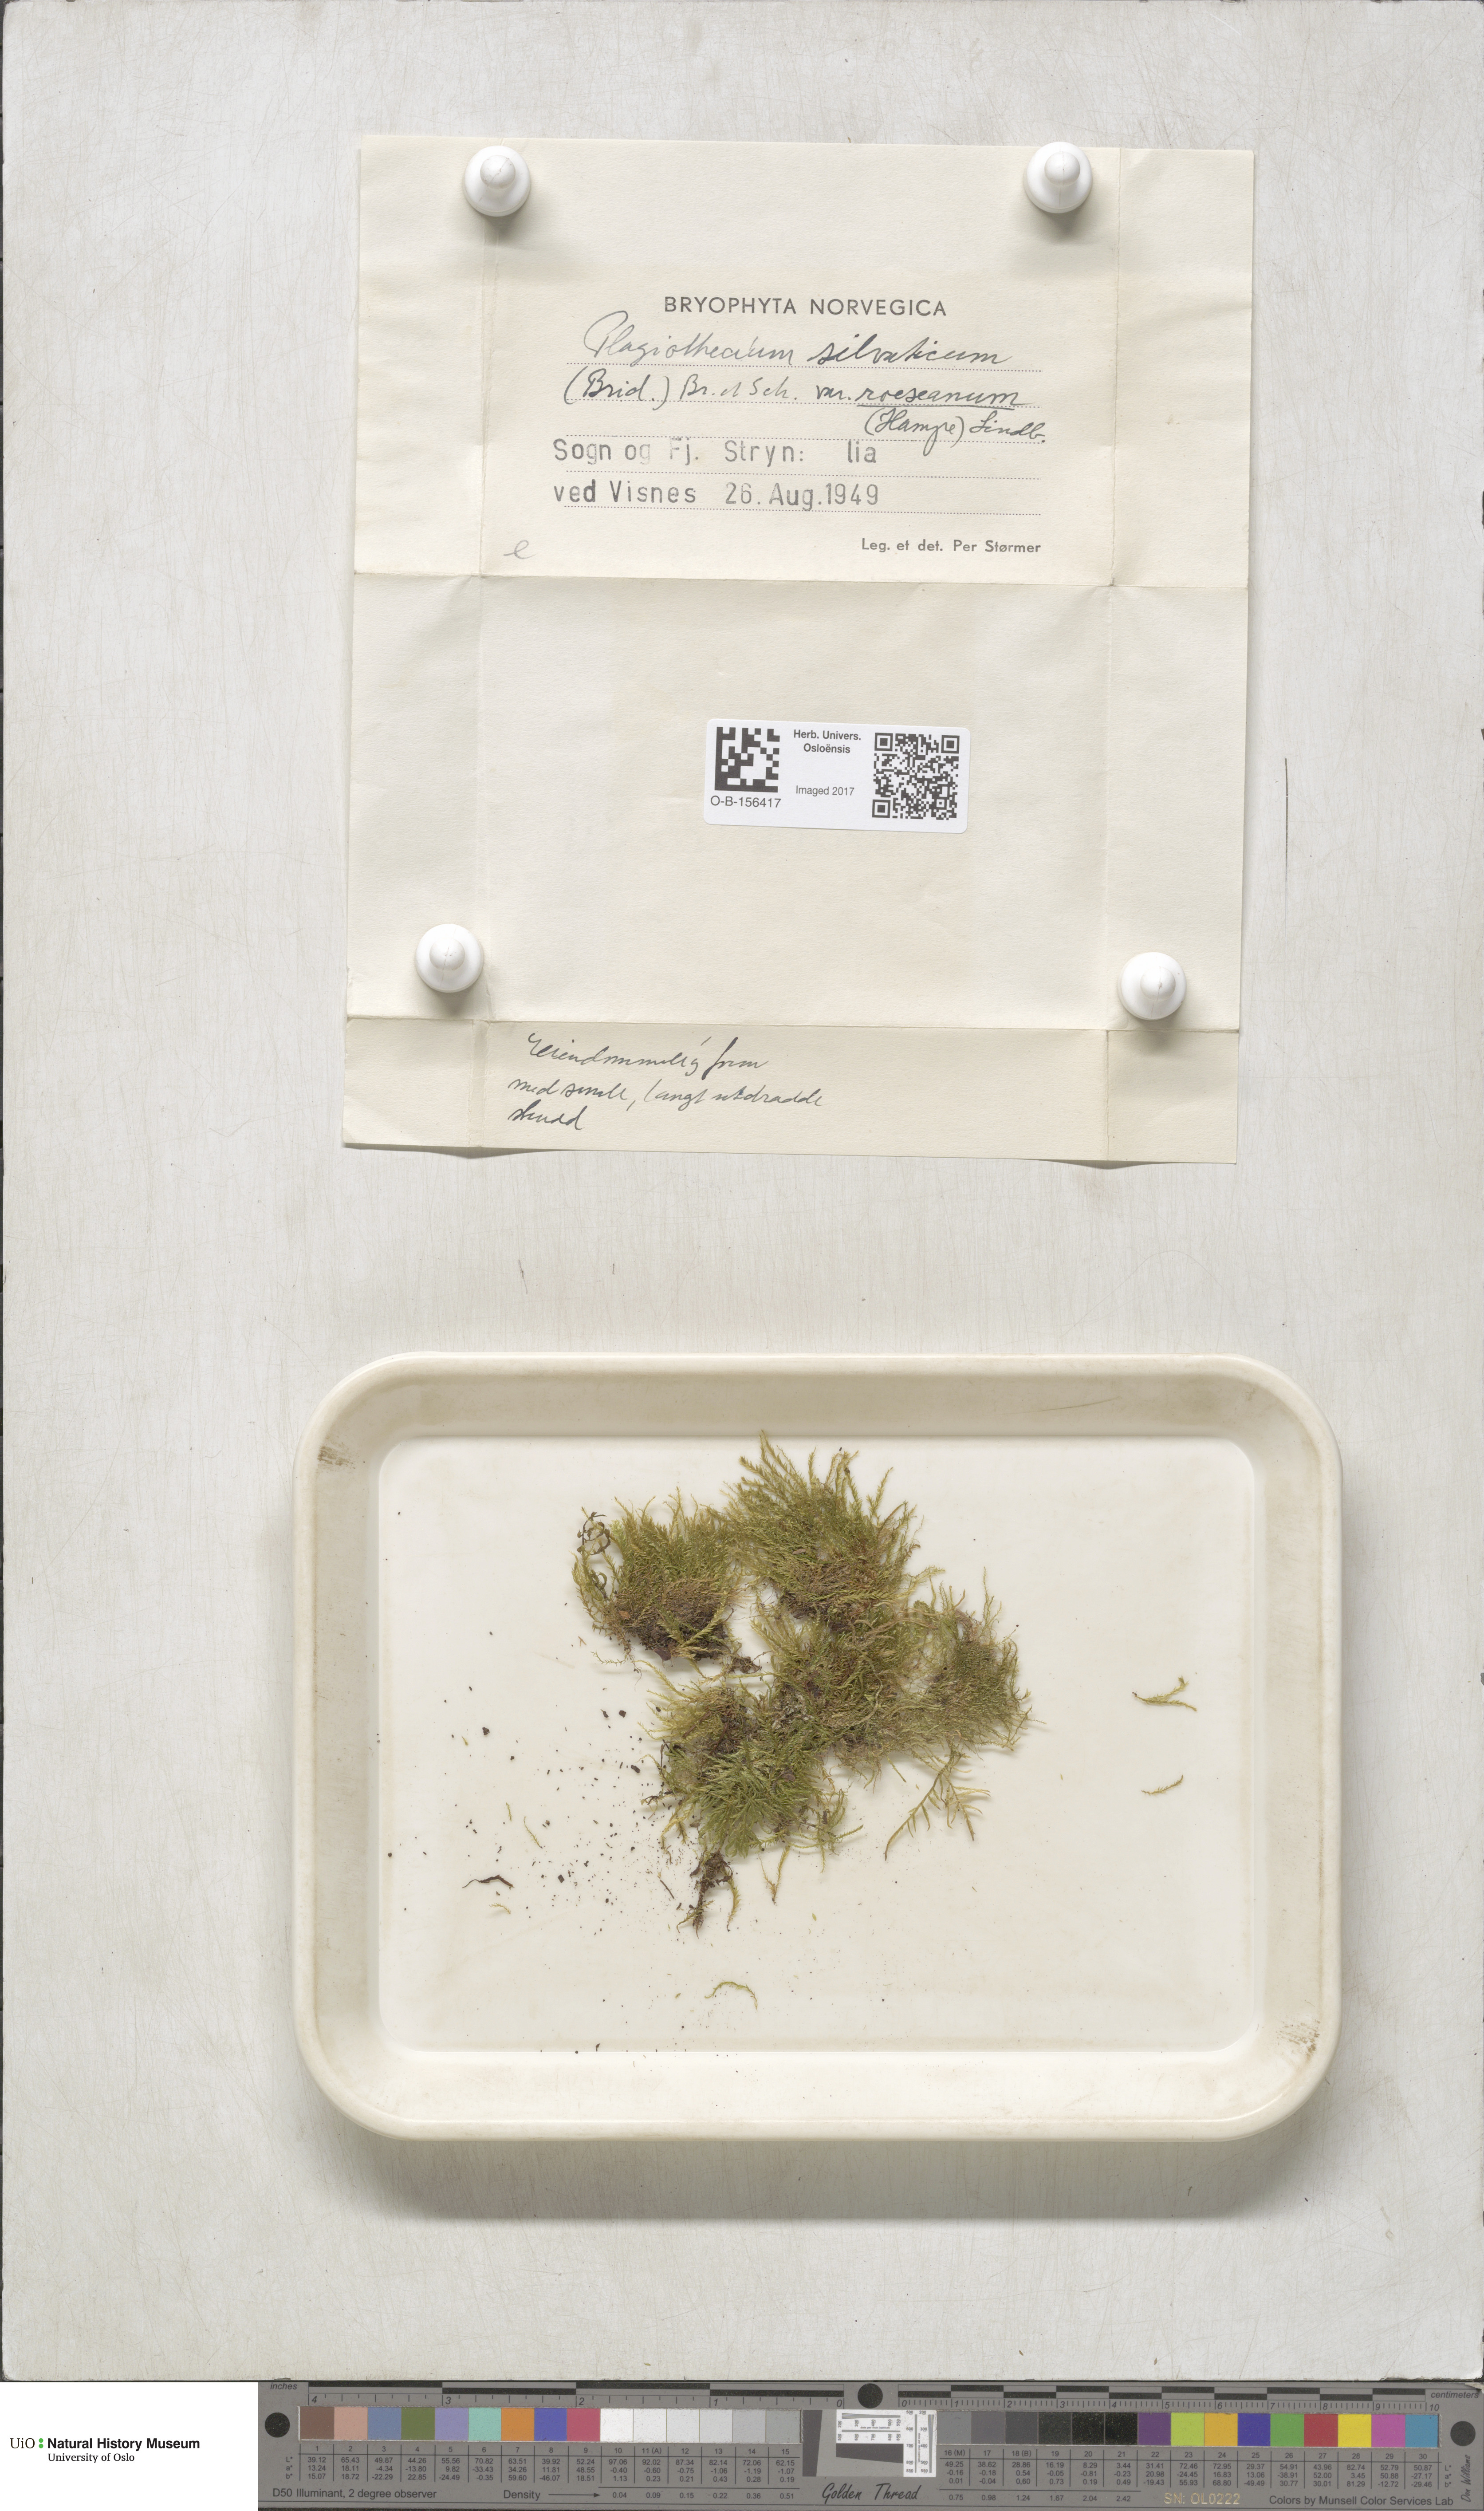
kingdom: Plantae
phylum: Bryophyta
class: Bryopsida
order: Hypnales
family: Plagiotheciaceae
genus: Plagiothecium
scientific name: Plagiothecium nemorale
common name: Woodsy silk-moss
